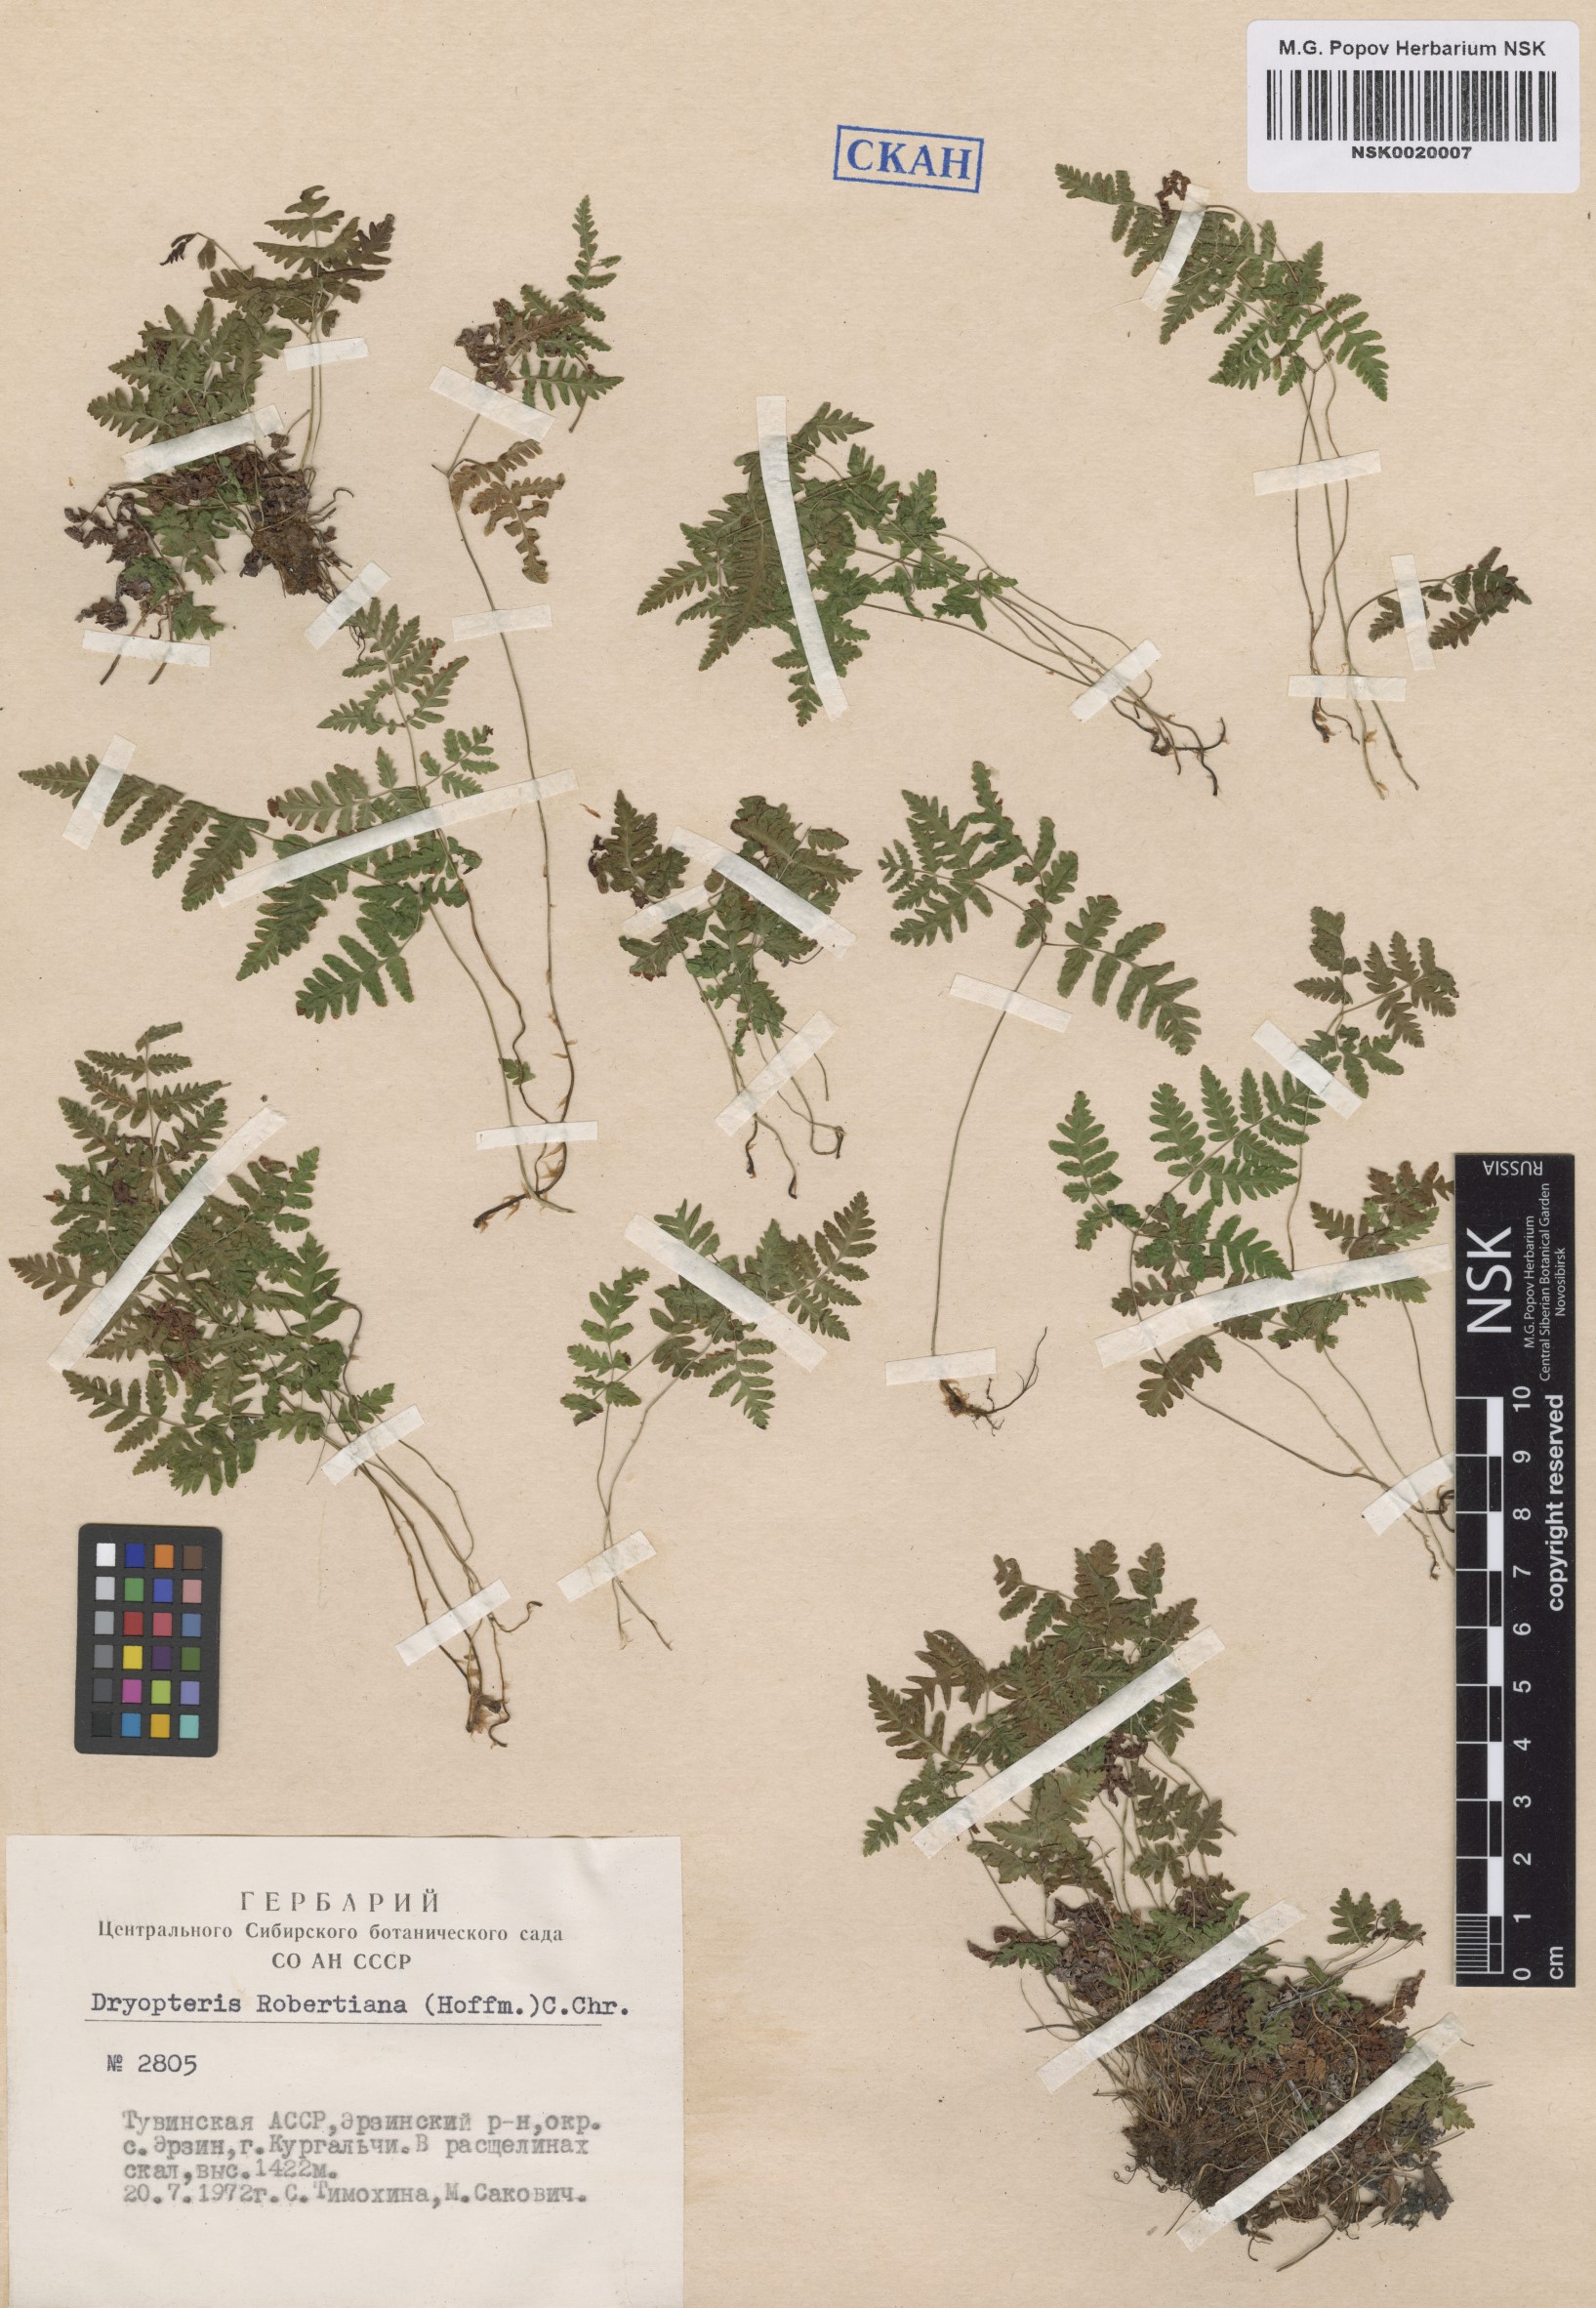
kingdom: Plantae
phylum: Tracheophyta
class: Polypodiopsida
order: Polypodiales
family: Cystopteridaceae
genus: Gymnocarpium
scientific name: Gymnocarpium robertianum
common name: Limestone fern
